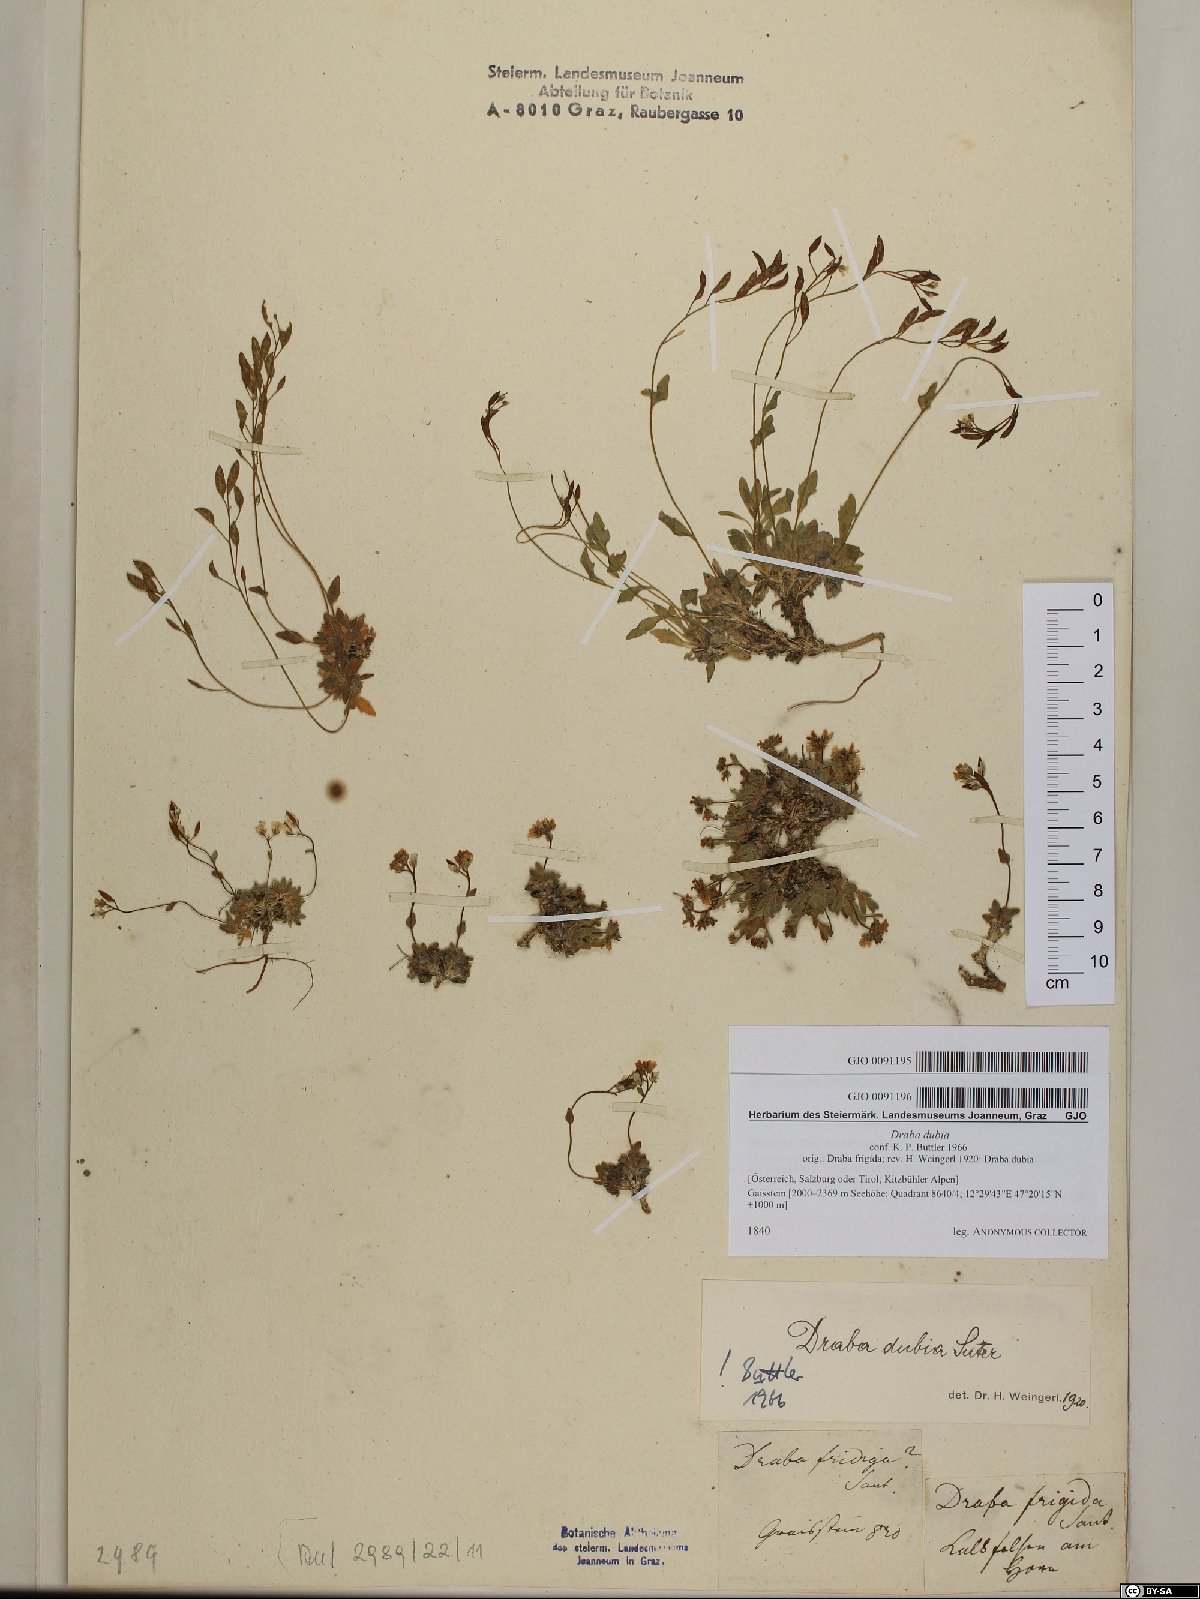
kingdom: Plantae
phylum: Tracheophyta
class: Magnoliopsida
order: Brassicales
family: Brassicaceae
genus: Draba
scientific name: Draba dubia
